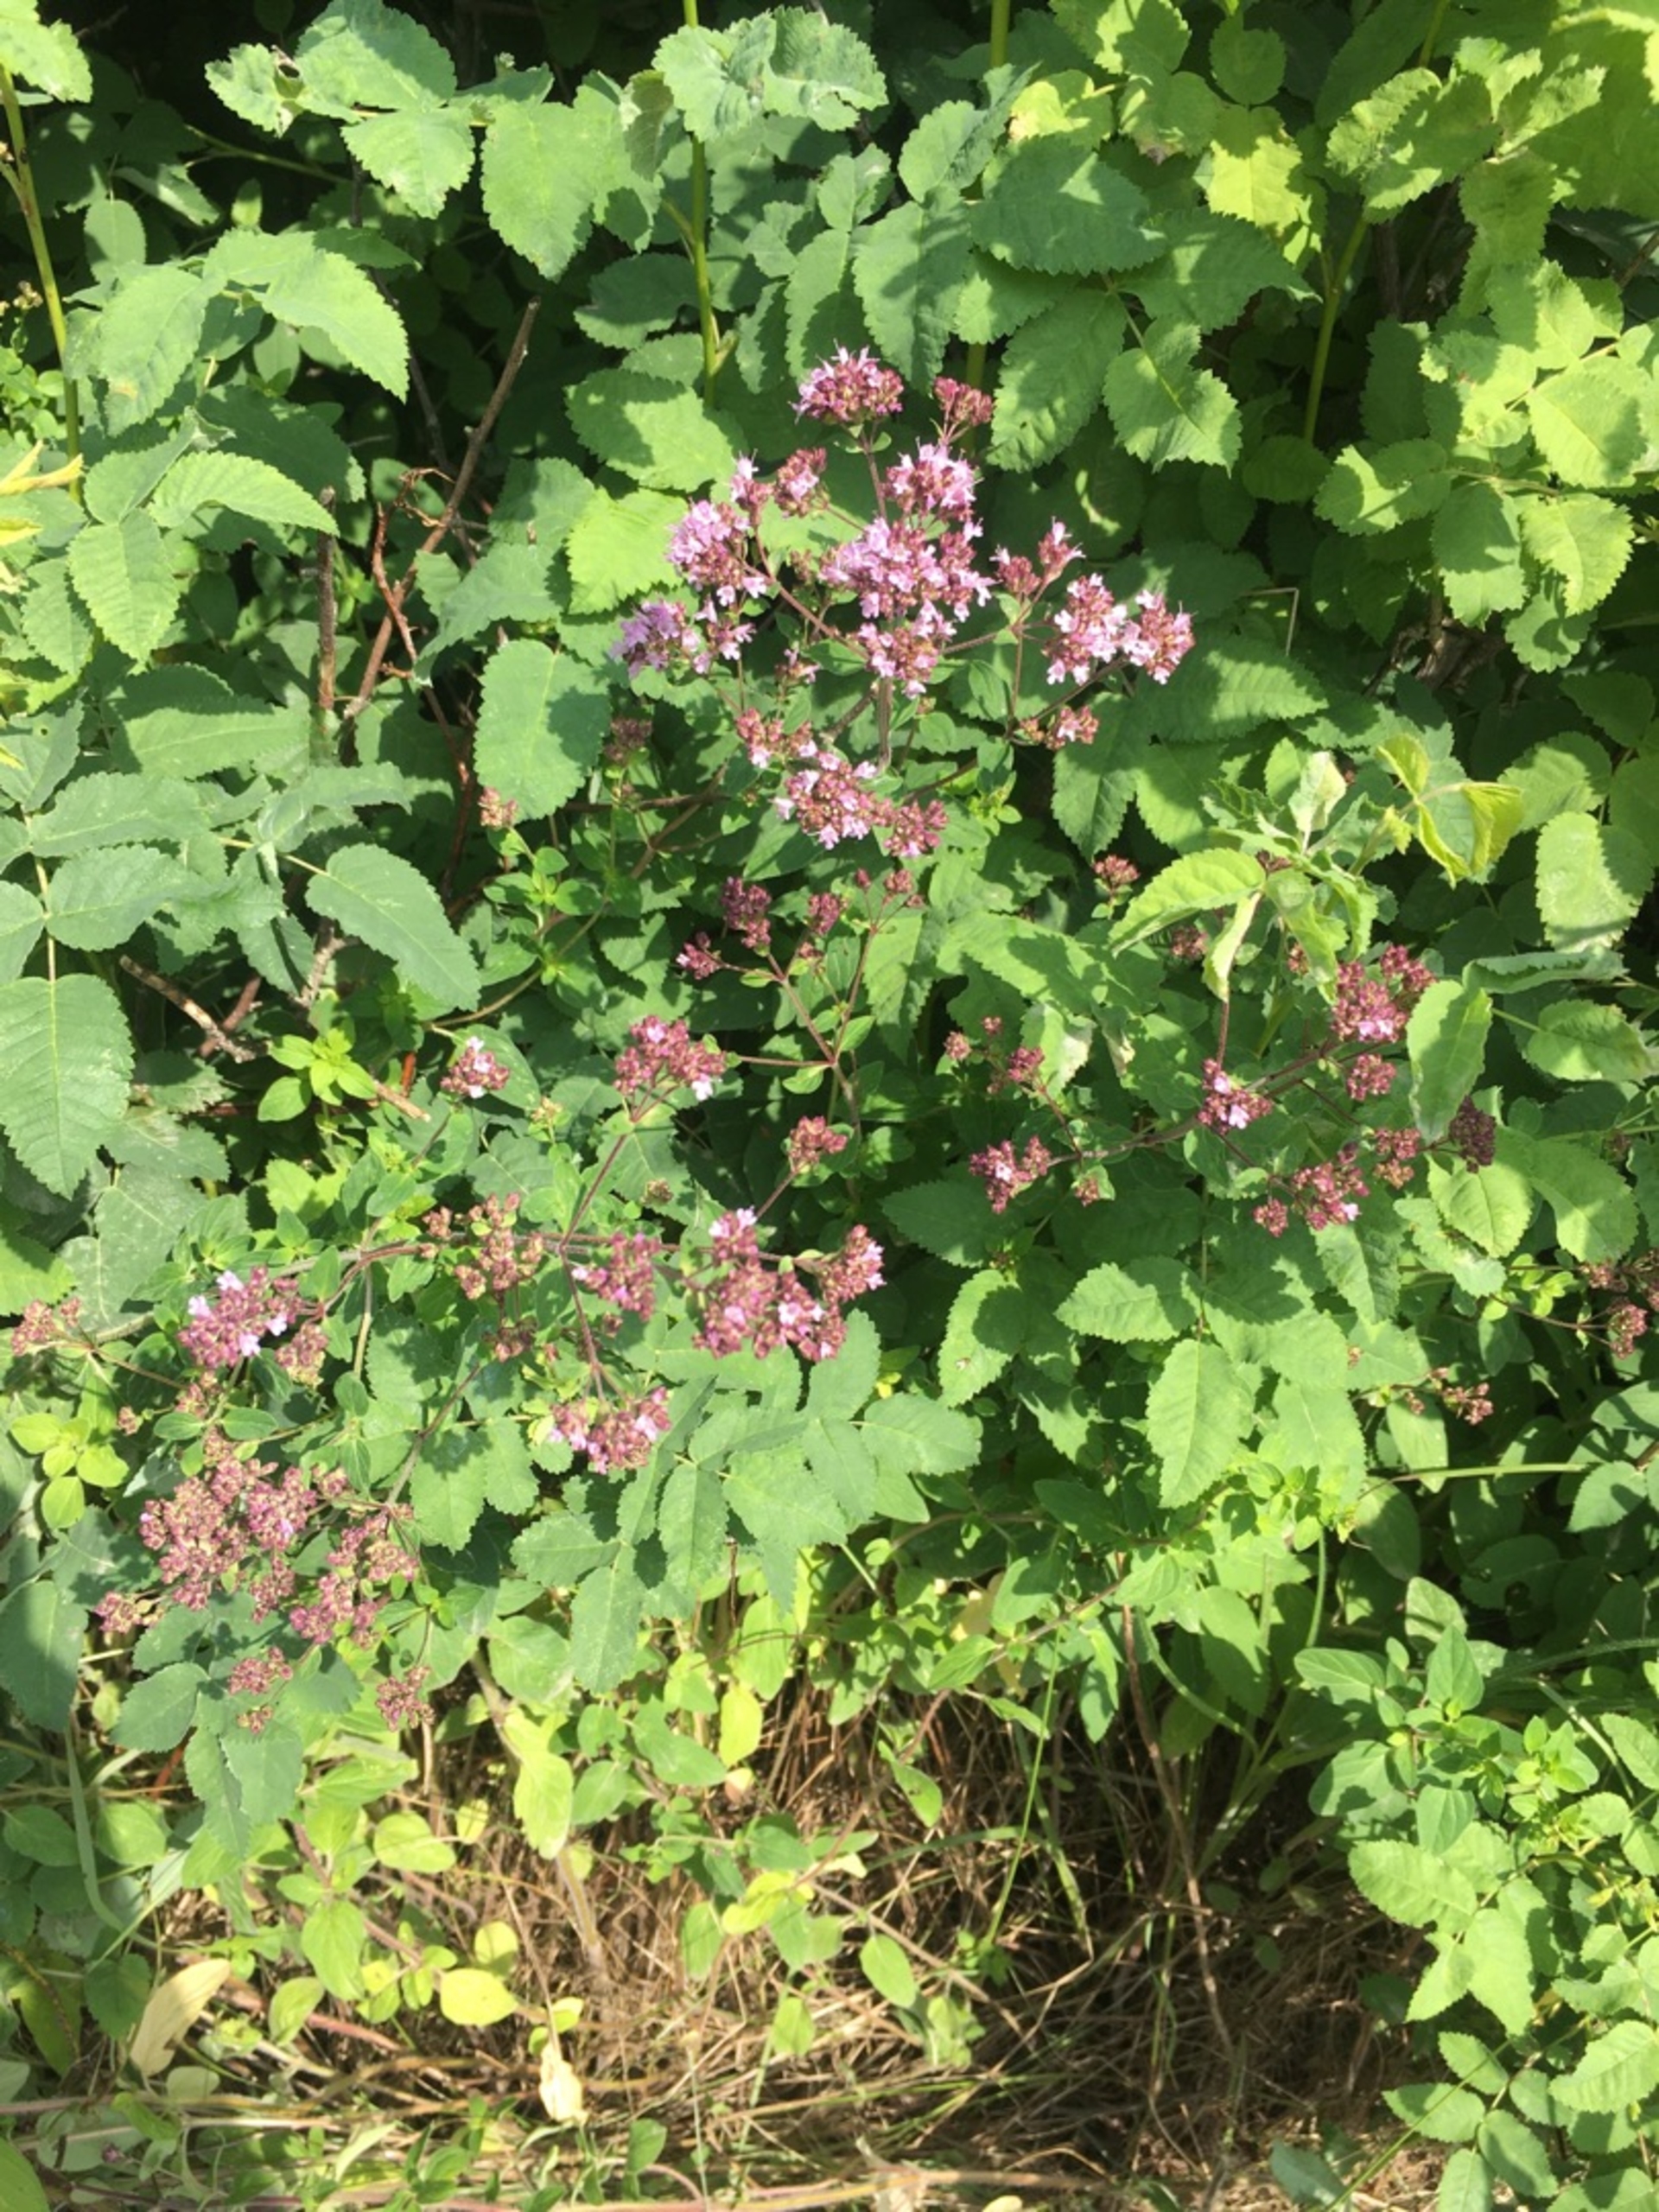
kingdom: Plantae
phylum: Tracheophyta
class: Magnoliopsida
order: Lamiales
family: Lamiaceae
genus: Origanum
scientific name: Origanum vulgare
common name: Merian
